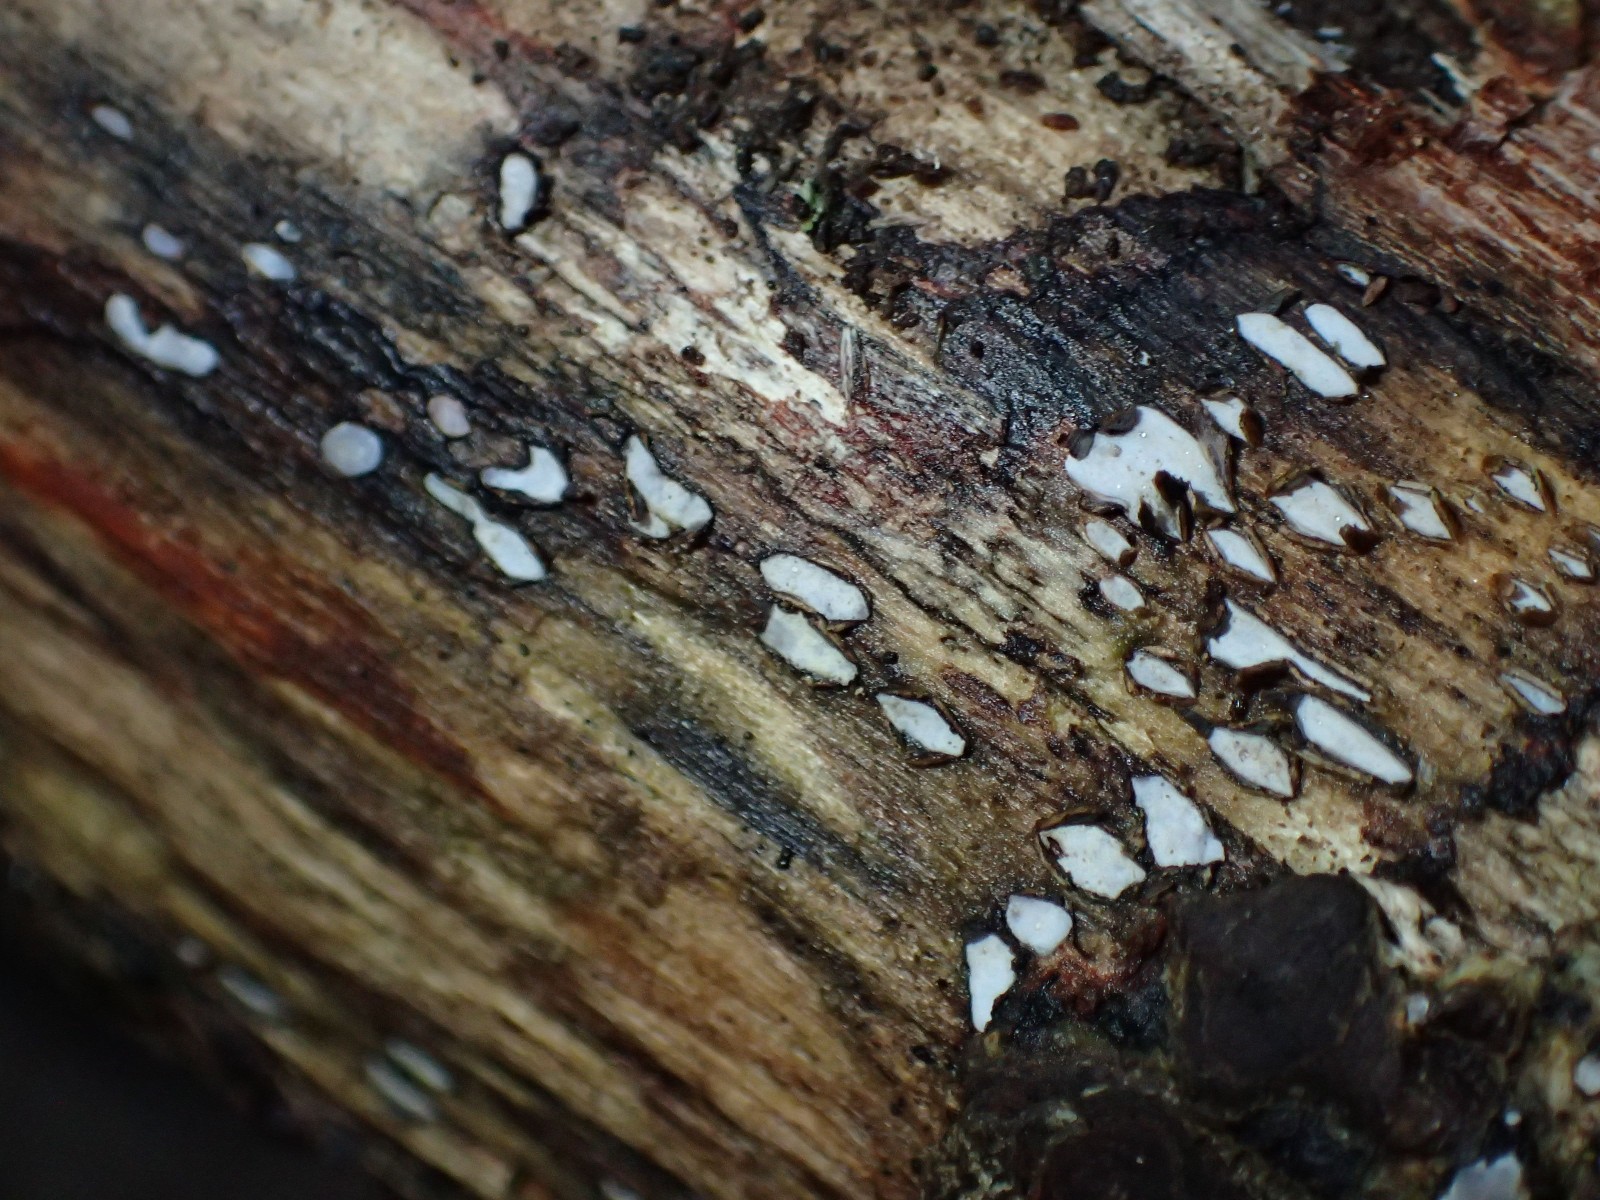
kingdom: Fungi
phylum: Ascomycota
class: Leotiomycetes
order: Chaetomellales
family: Marthamycetaceae
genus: Propolis
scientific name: Propolis farinosa
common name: almindelig vedsprængerskive
